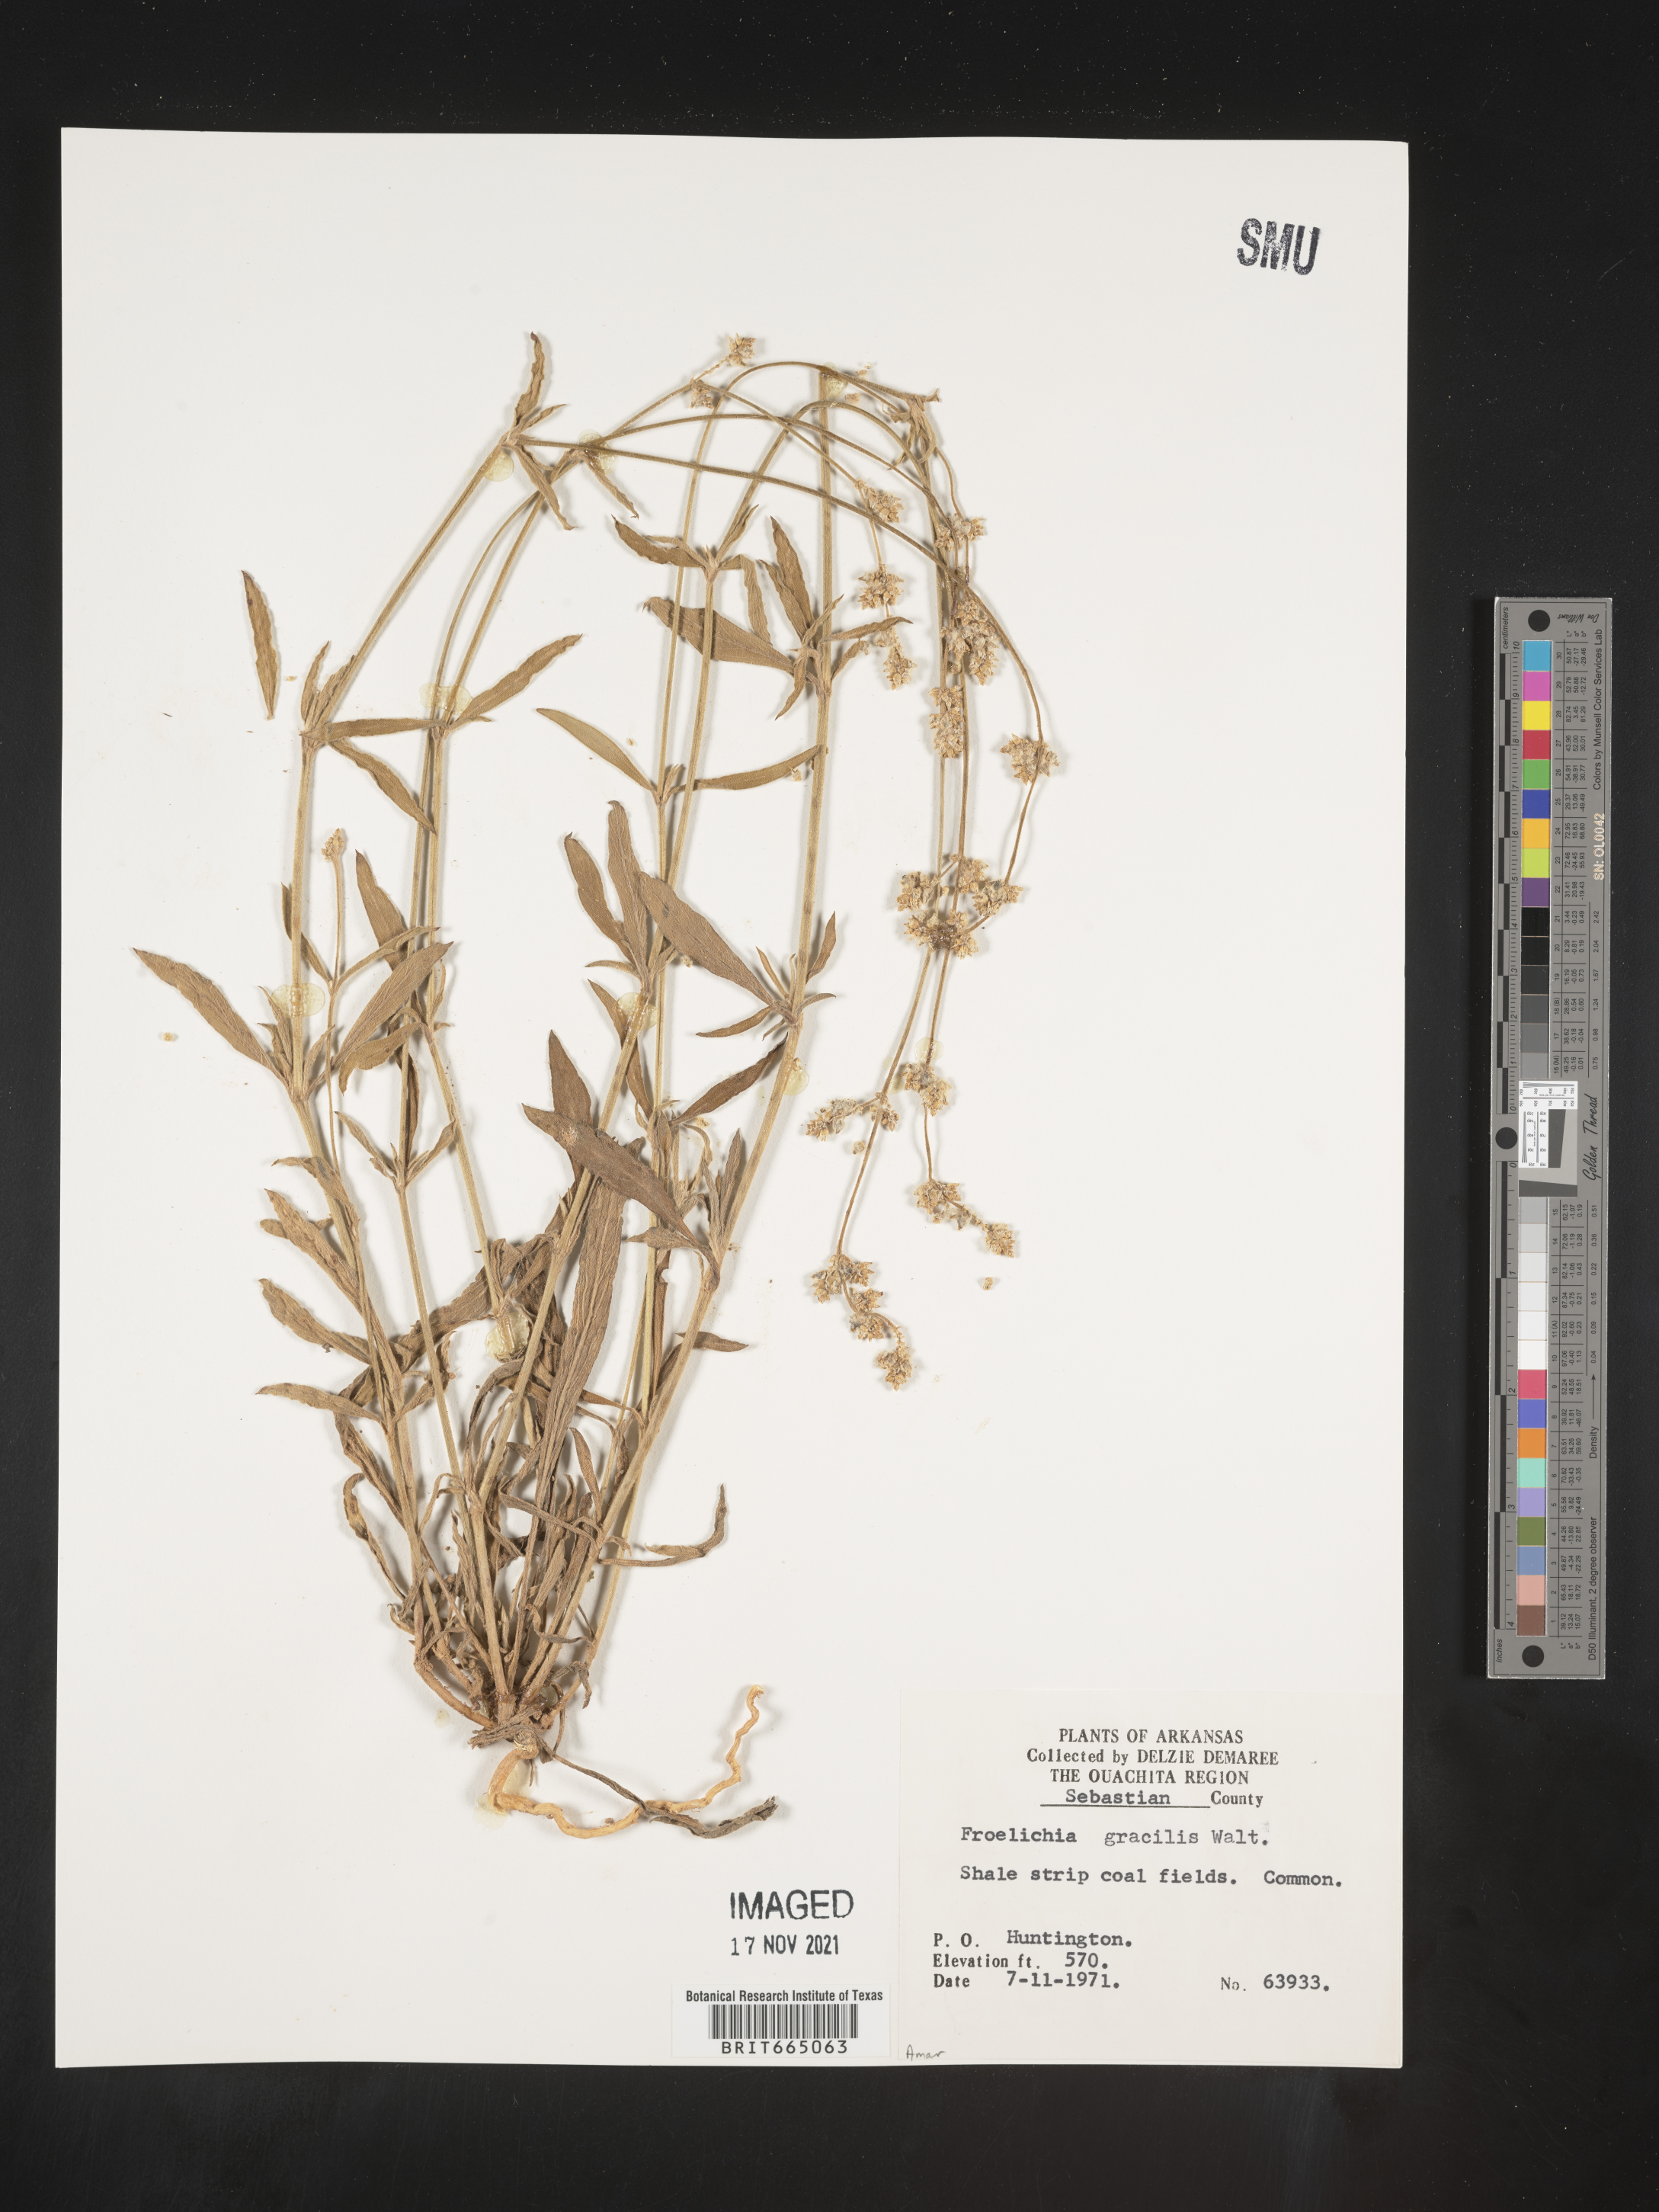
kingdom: Plantae
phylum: Tracheophyta
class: Magnoliopsida
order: Caryophyllales
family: Amaranthaceae
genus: Froelichia
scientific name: Froelichia gracilis
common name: Slender cottonweed
